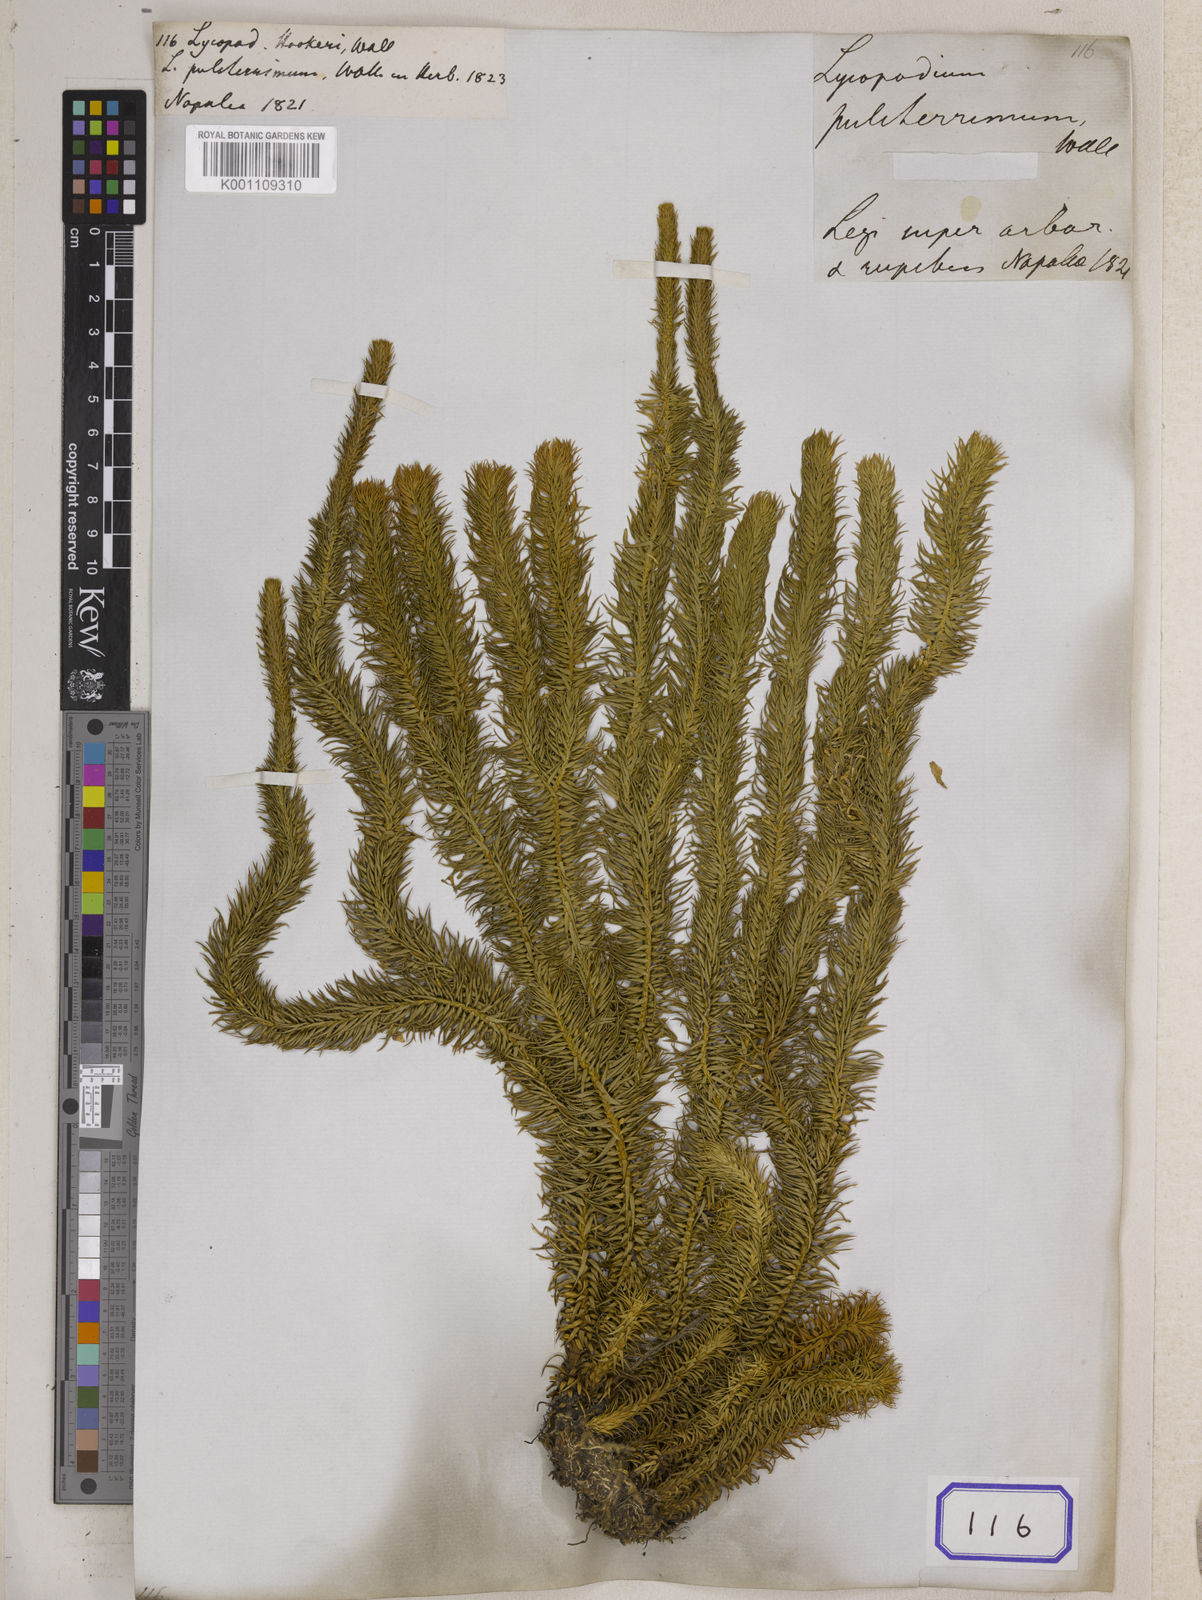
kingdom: Plantae
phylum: Tracheophyta
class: Lycopodiopsida
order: Lycopodiales
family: Lycopodiaceae
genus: Phlegmariurus
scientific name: Phlegmariurus squarrosus
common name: Rock tassel-fern
